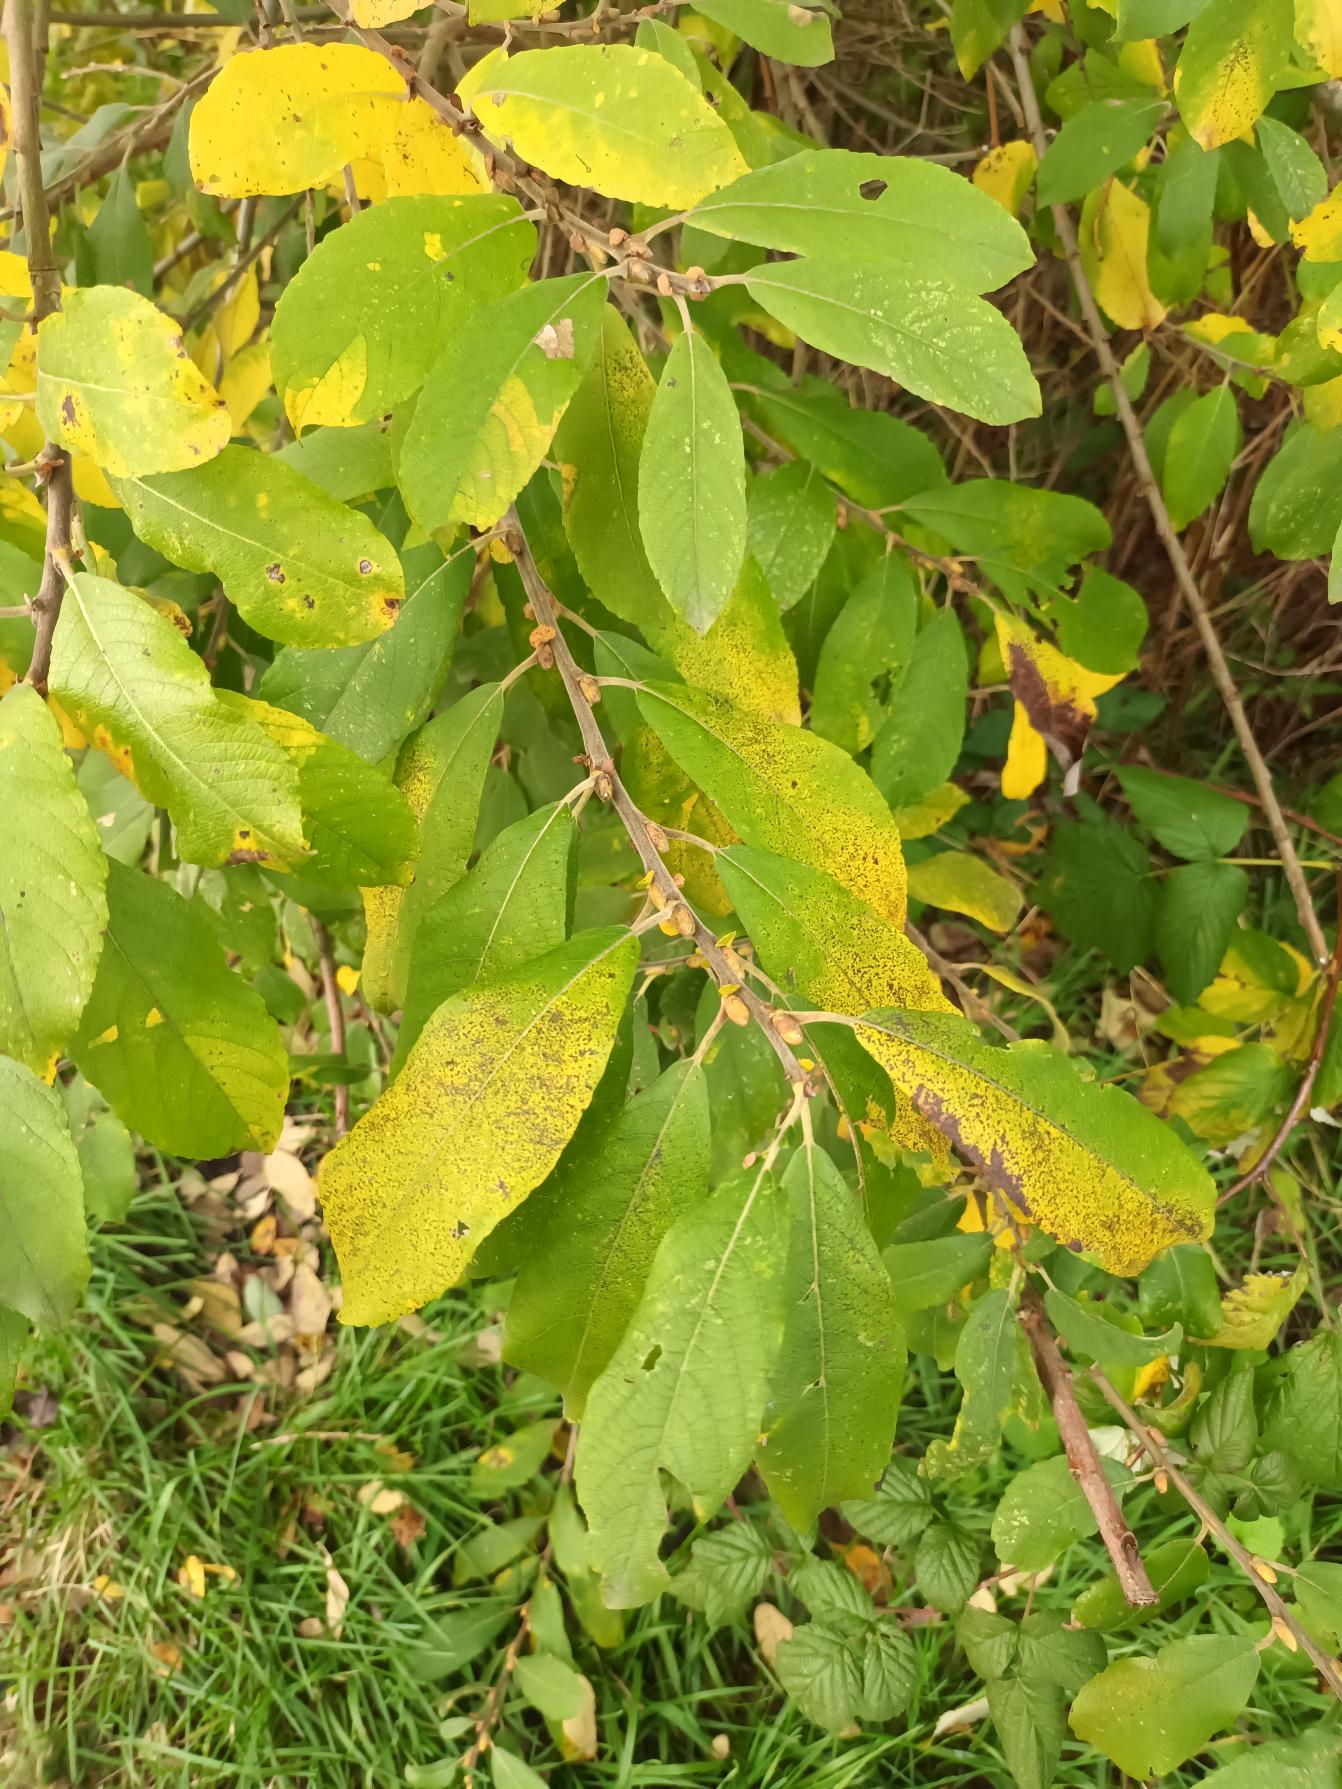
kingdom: Plantae
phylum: Tracheophyta
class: Magnoliopsida
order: Malpighiales
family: Salicaceae
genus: Salix
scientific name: Salix cinerea
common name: Grå-pil
